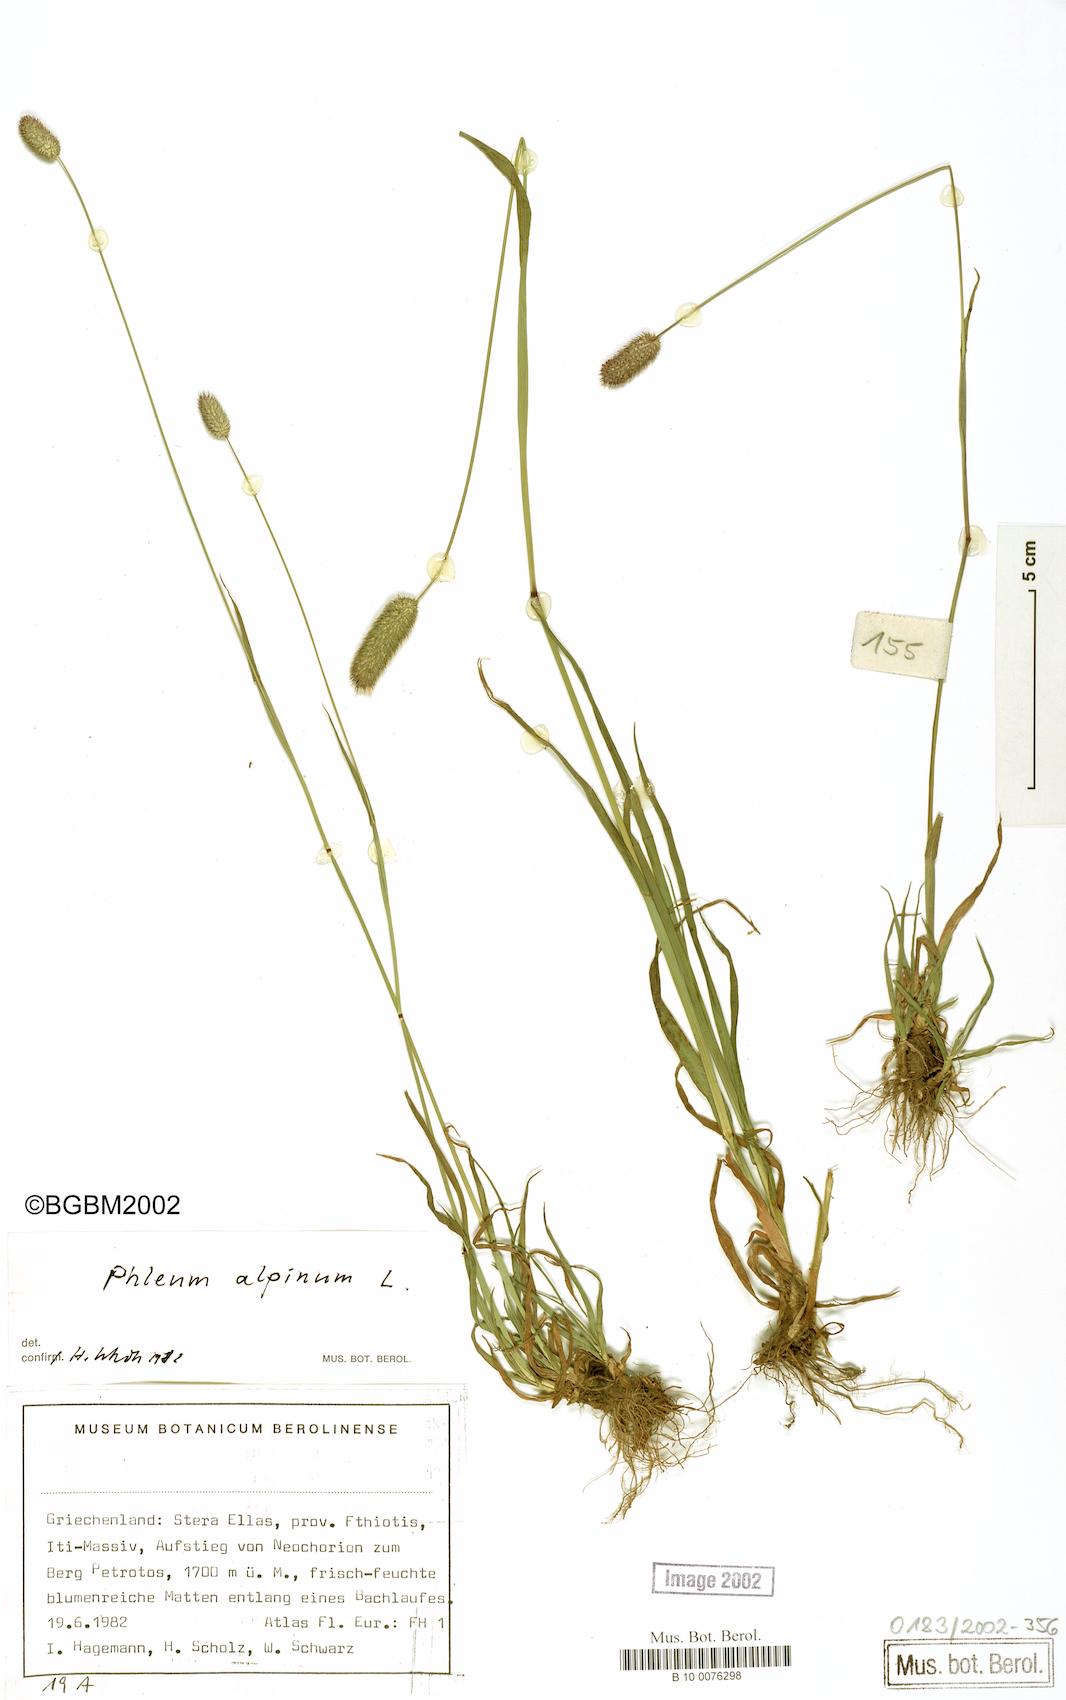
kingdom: Plantae
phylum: Tracheophyta
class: Liliopsida
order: Poales
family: Poaceae
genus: Phleum
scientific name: Phleum alpinum
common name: Alpine cat's-tail
